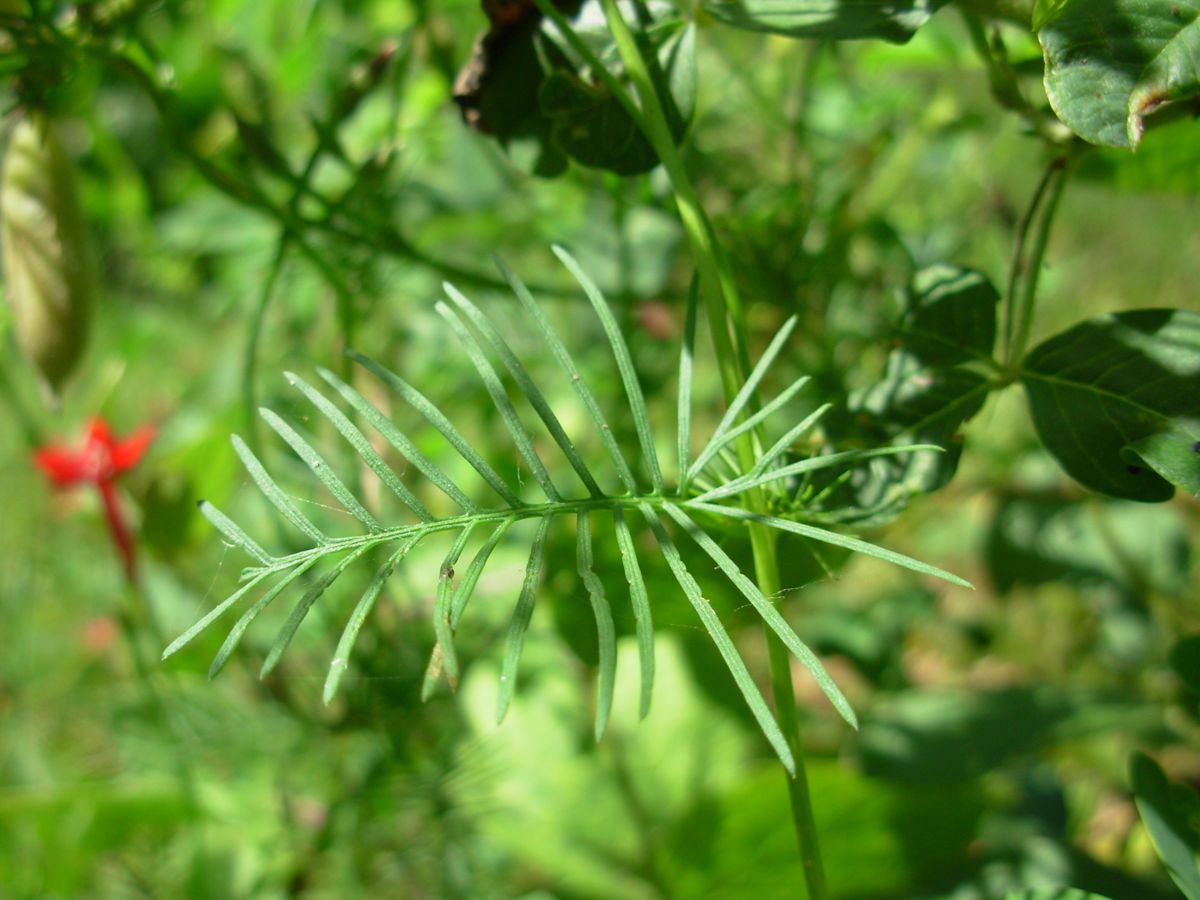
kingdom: Plantae
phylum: Tracheophyta
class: Magnoliopsida
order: Solanales
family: Convolvulaceae
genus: Ipomoea
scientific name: Ipomoea quamoclit
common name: Cypress vine
